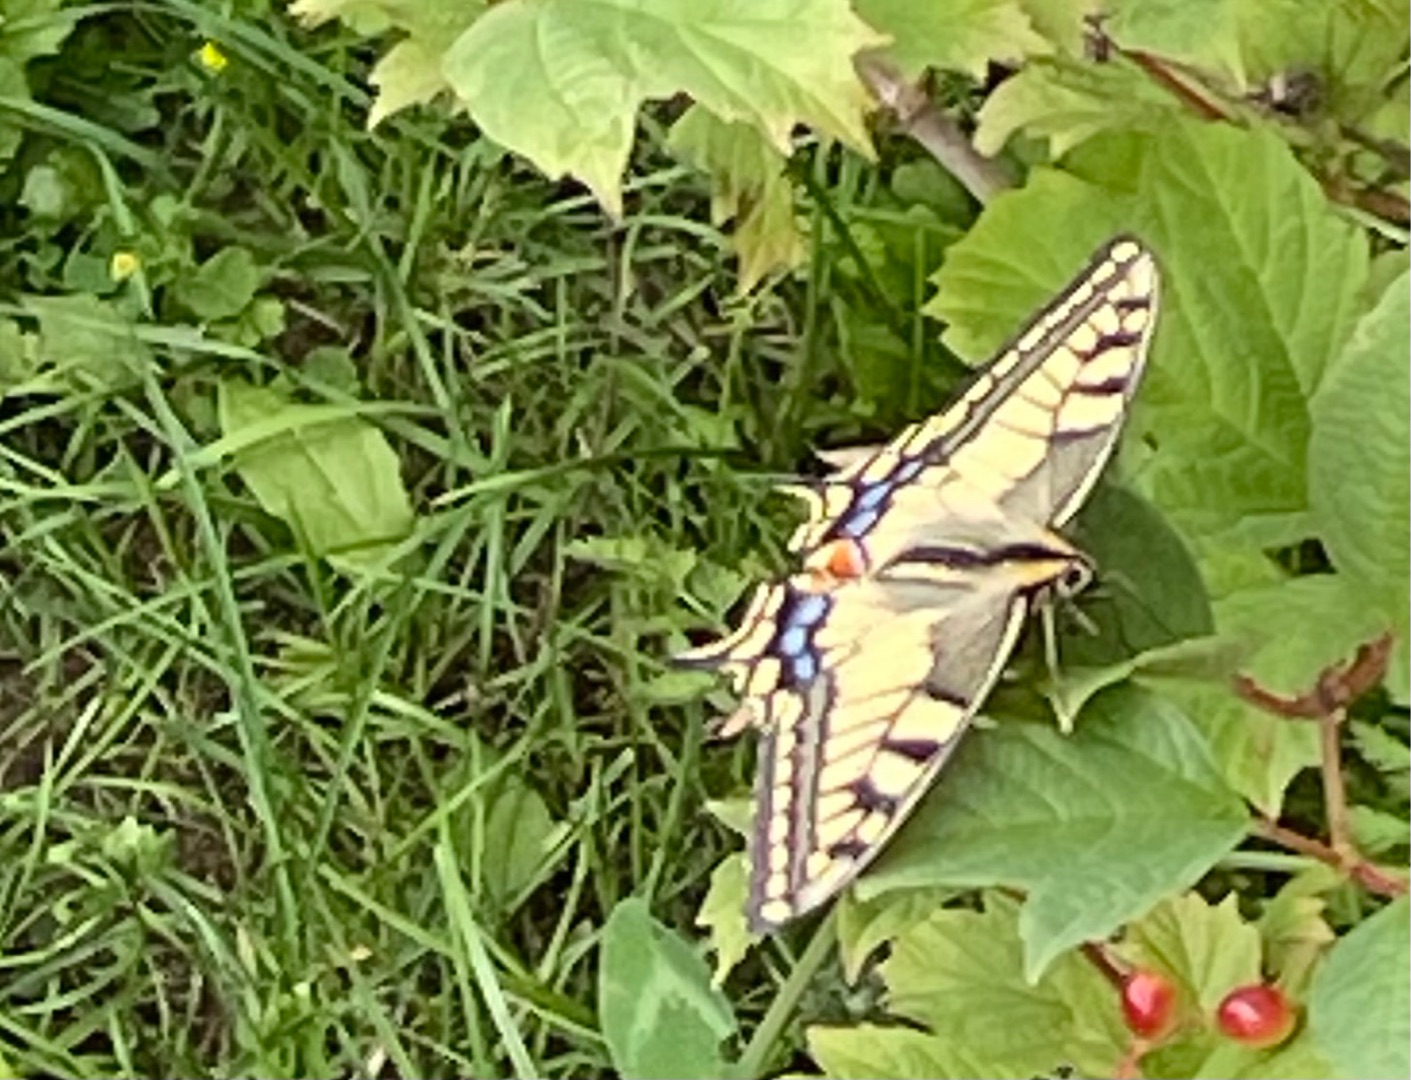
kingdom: Animalia
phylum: Arthropoda
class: Insecta
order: Lepidoptera
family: Papilionidae
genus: Papilio
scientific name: Papilio machaon
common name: Svalehale
